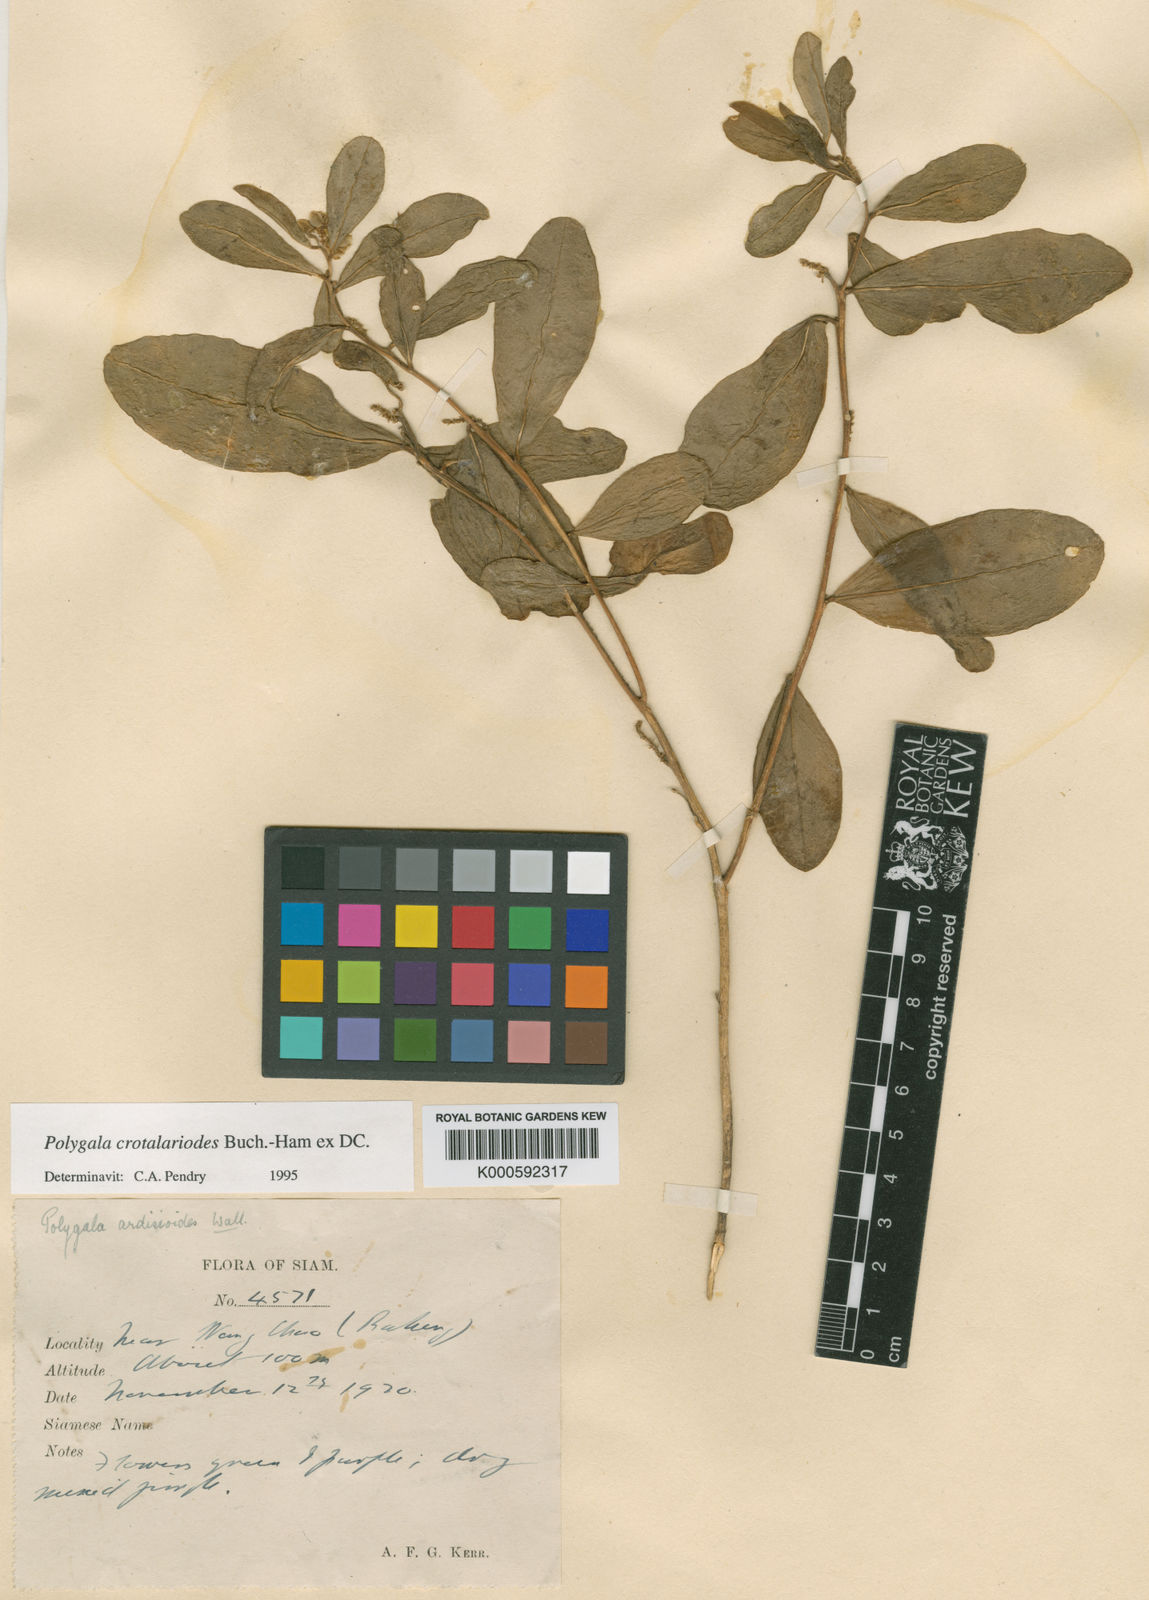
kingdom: Plantae
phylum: Tracheophyta
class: Magnoliopsida
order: Fabales
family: Polygalaceae
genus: Polygala
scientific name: Polygala crotalarioides
